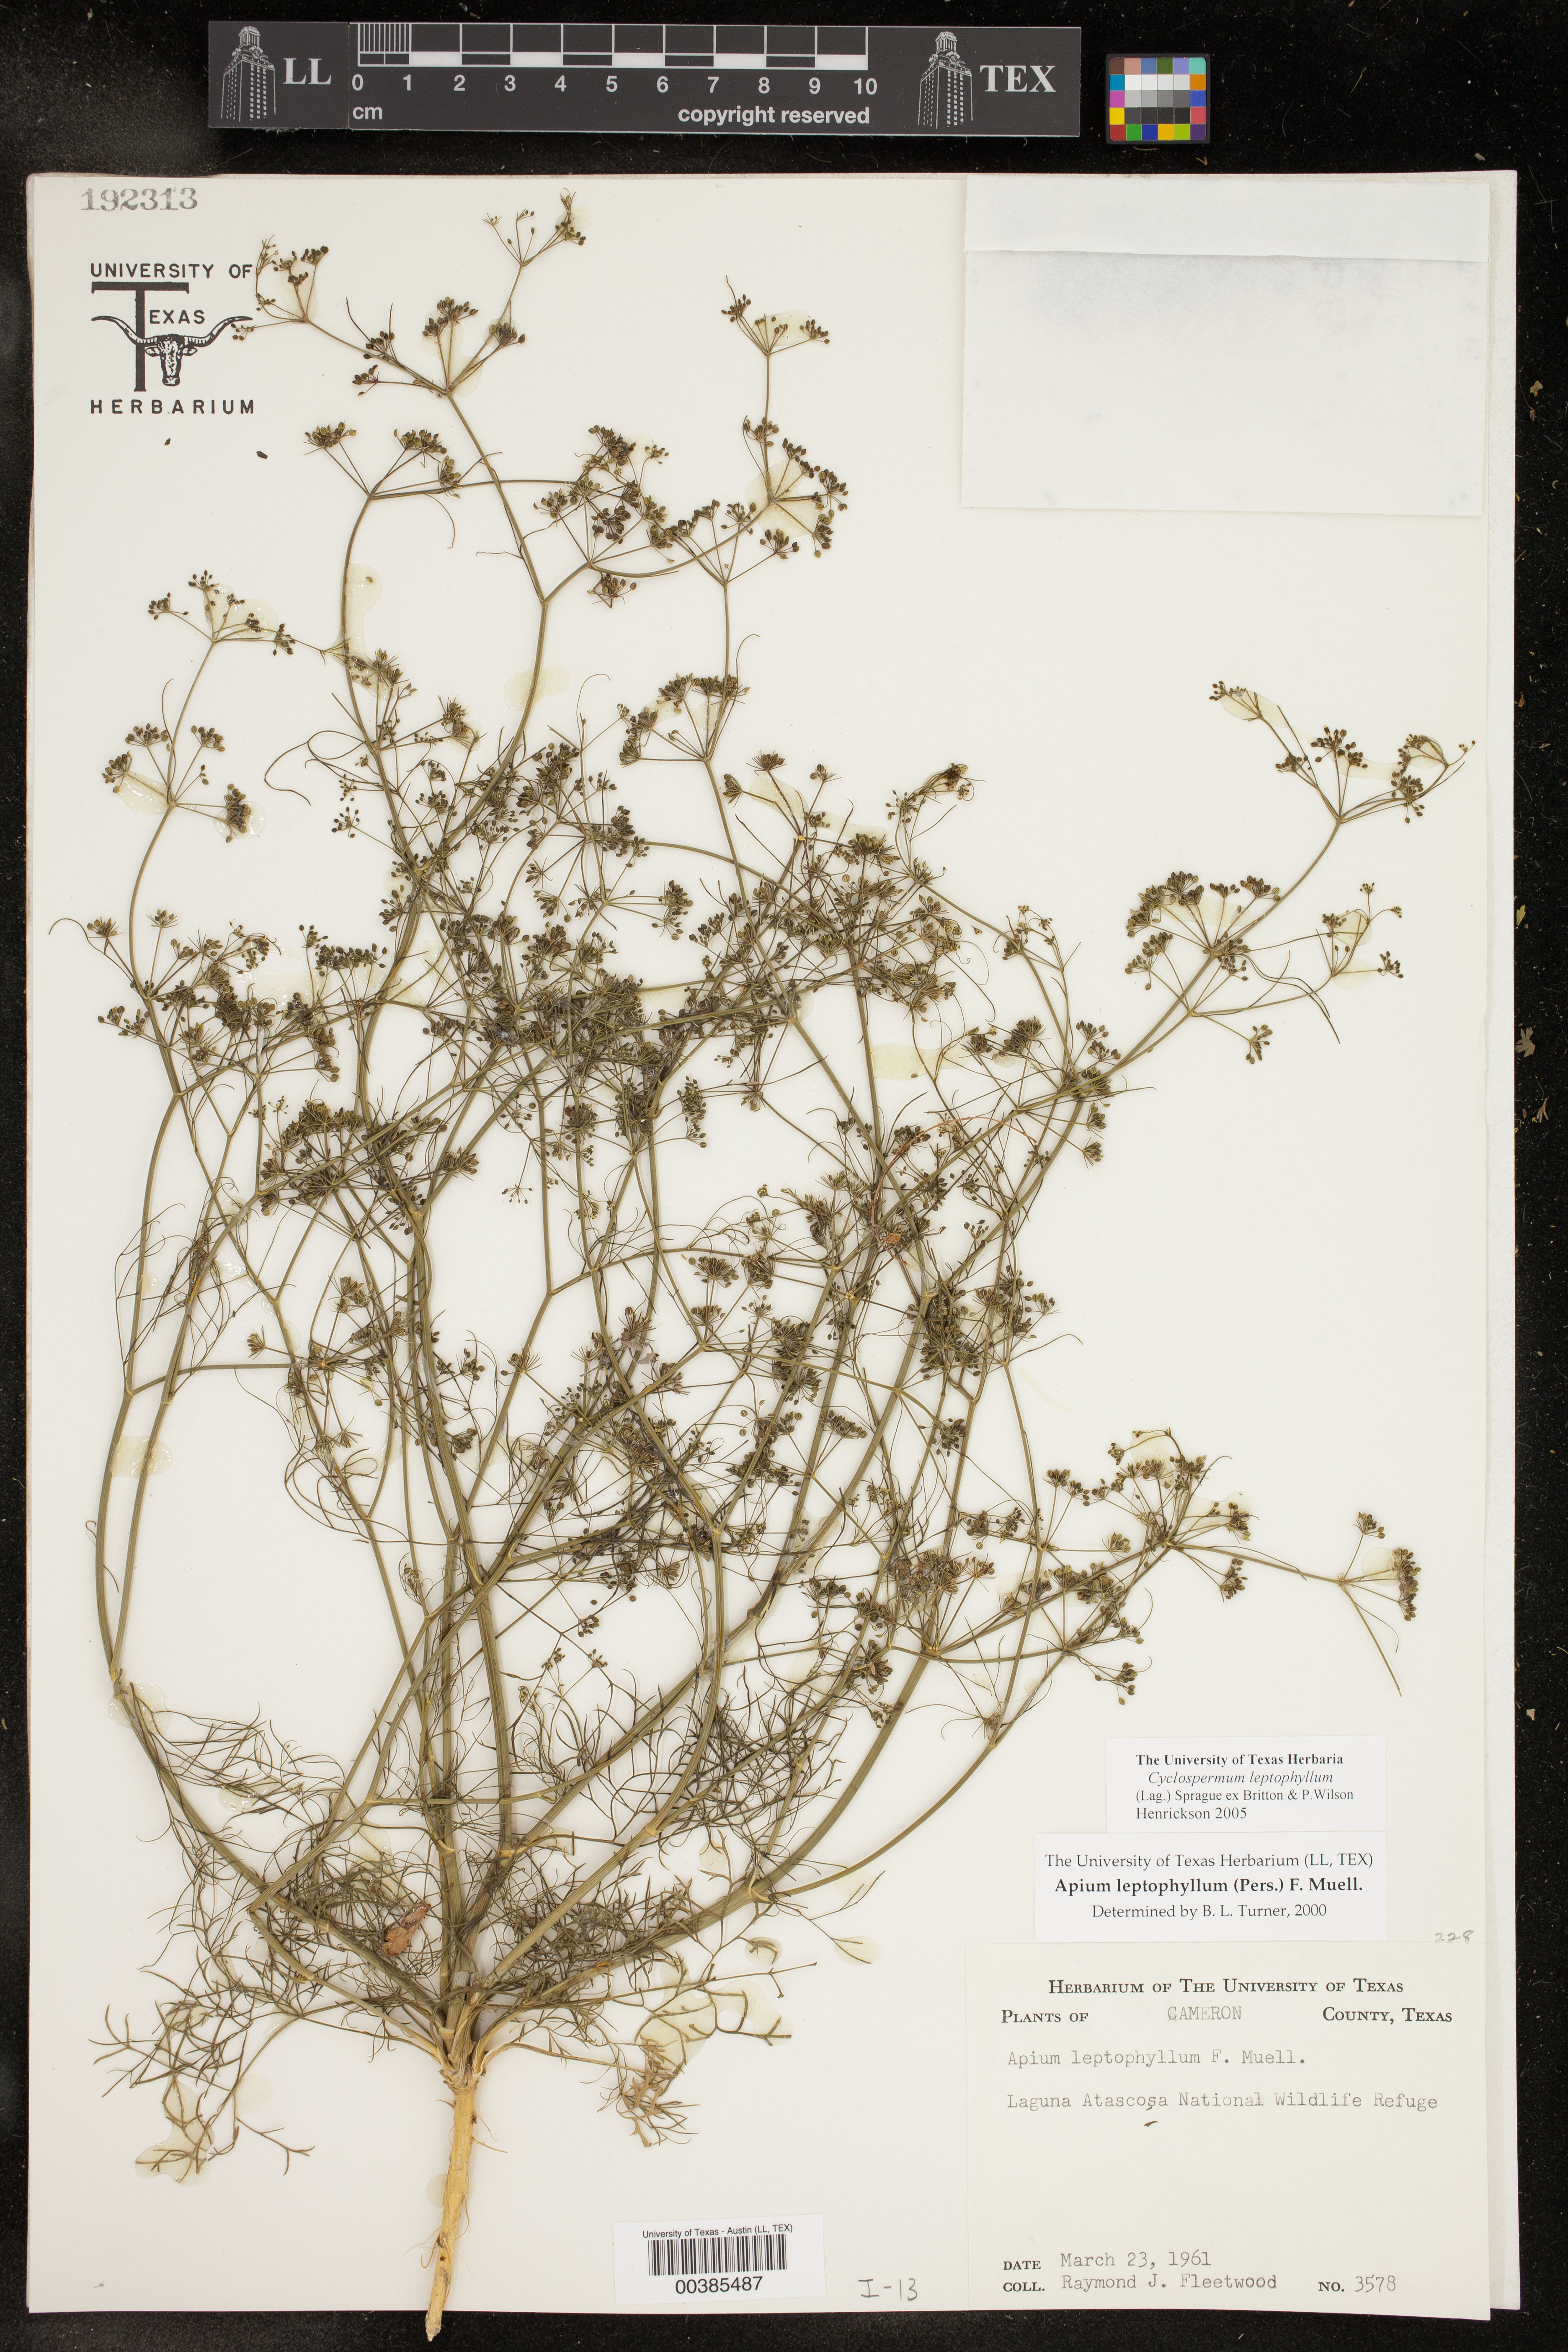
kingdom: Plantae
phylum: Tracheophyta
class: Magnoliopsida
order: Apiales
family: Apiaceae
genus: Cyclospermum
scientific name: Cyclospermum leptophyllum
